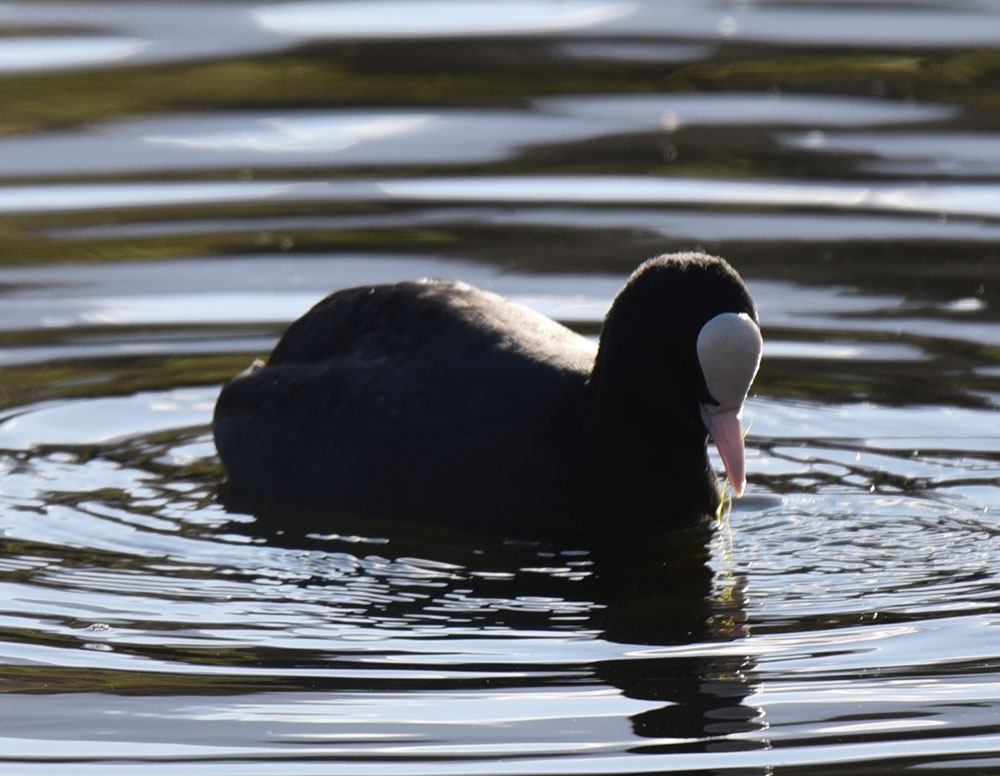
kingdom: Animalia
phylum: Chordata
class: Aves
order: Gruiformes
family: Rallidae
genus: Fulica
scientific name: Fulica atra
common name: Eurasian coot
